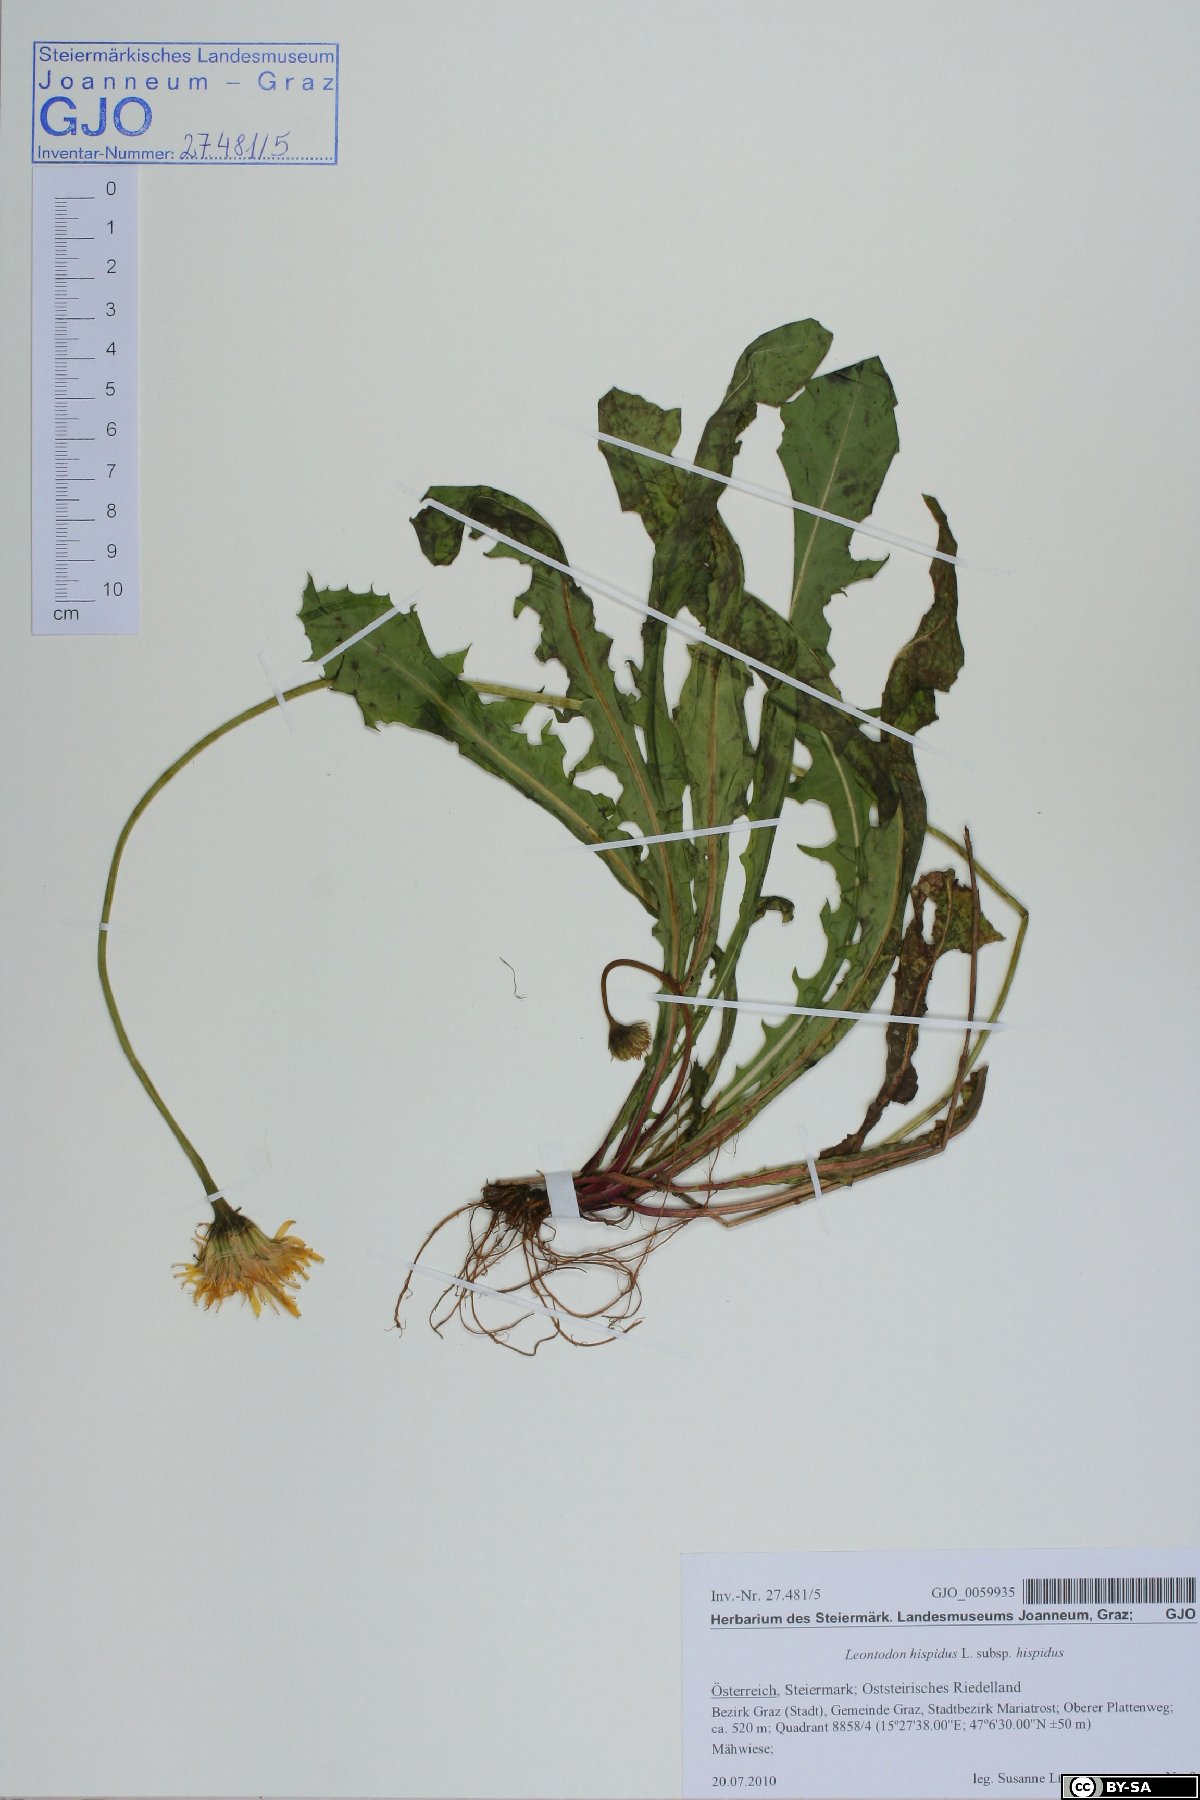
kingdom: Plantae
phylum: Tracheophyta
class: Magnoliopsida
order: Asterales
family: Asteraceae
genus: Leontodon
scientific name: Leontodon hispidus
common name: Rough hawkbit
